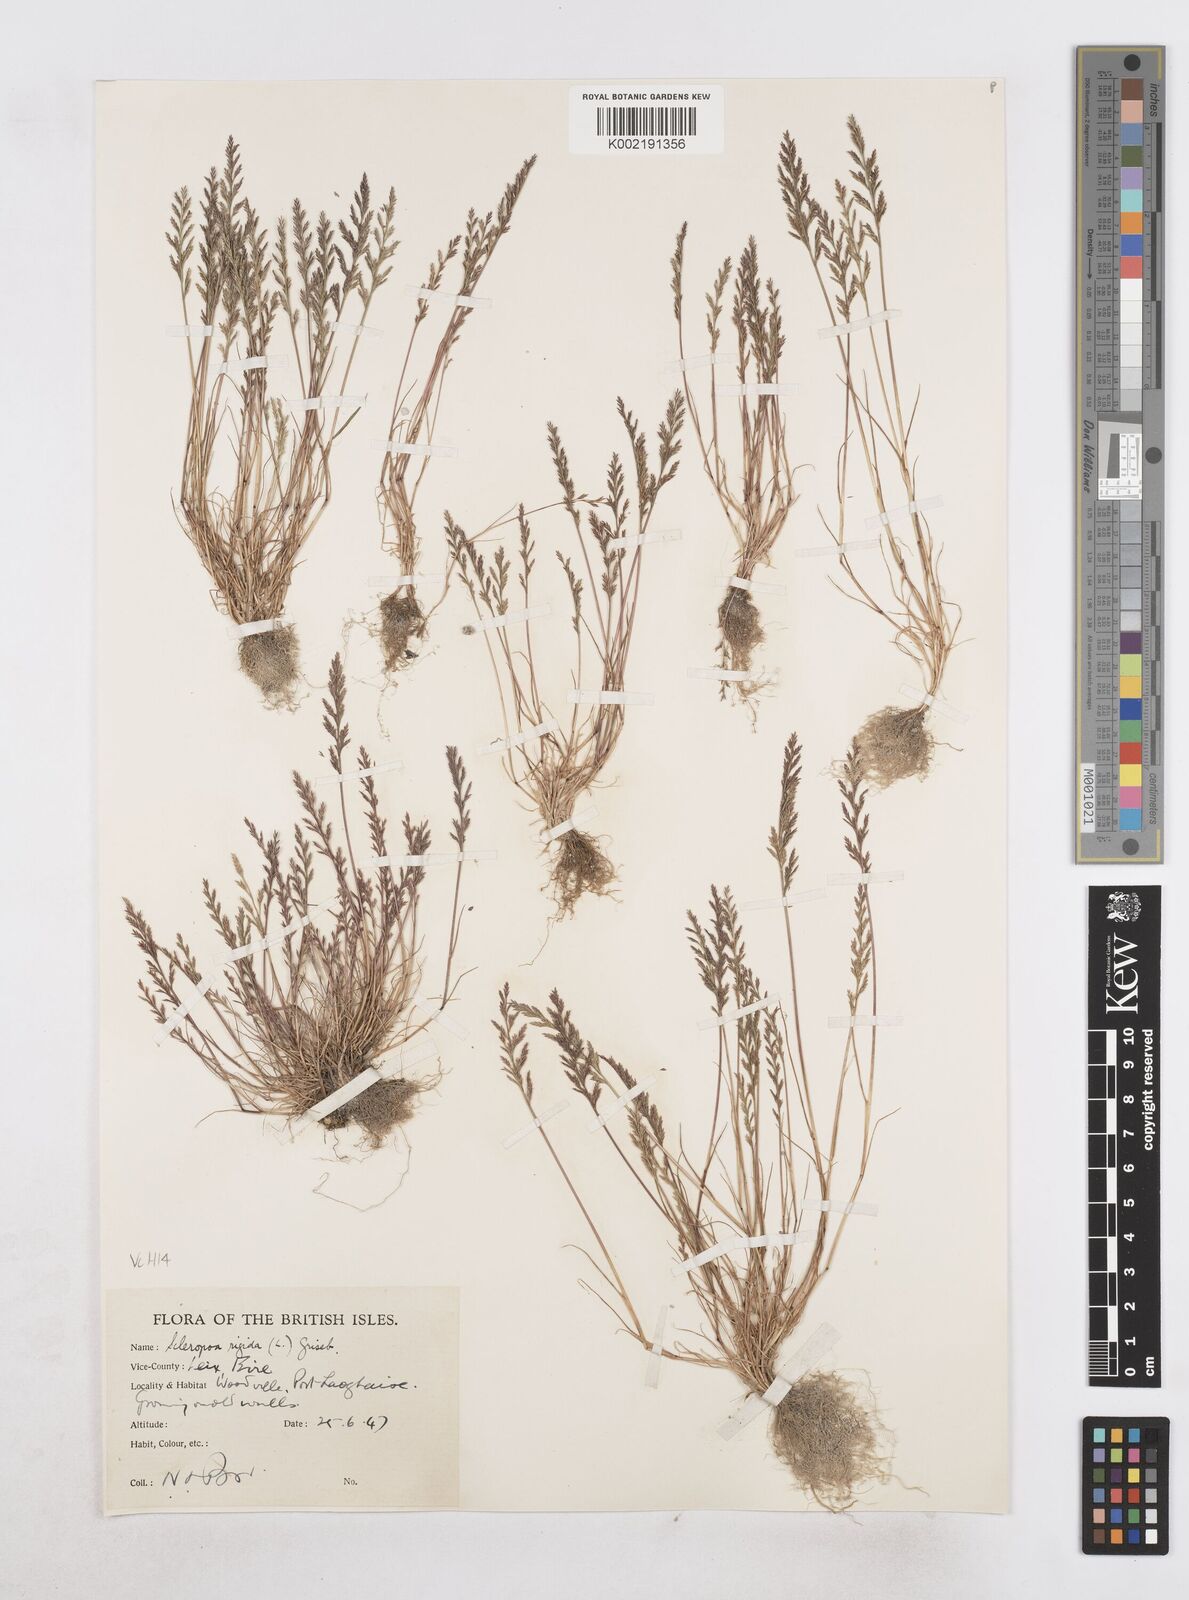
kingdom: Plantae
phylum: Tracheophyta
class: Liliopsida
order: Poales
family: Poaceae
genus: Catapodium
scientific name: Catapodium rigidum
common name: Fern-grass
